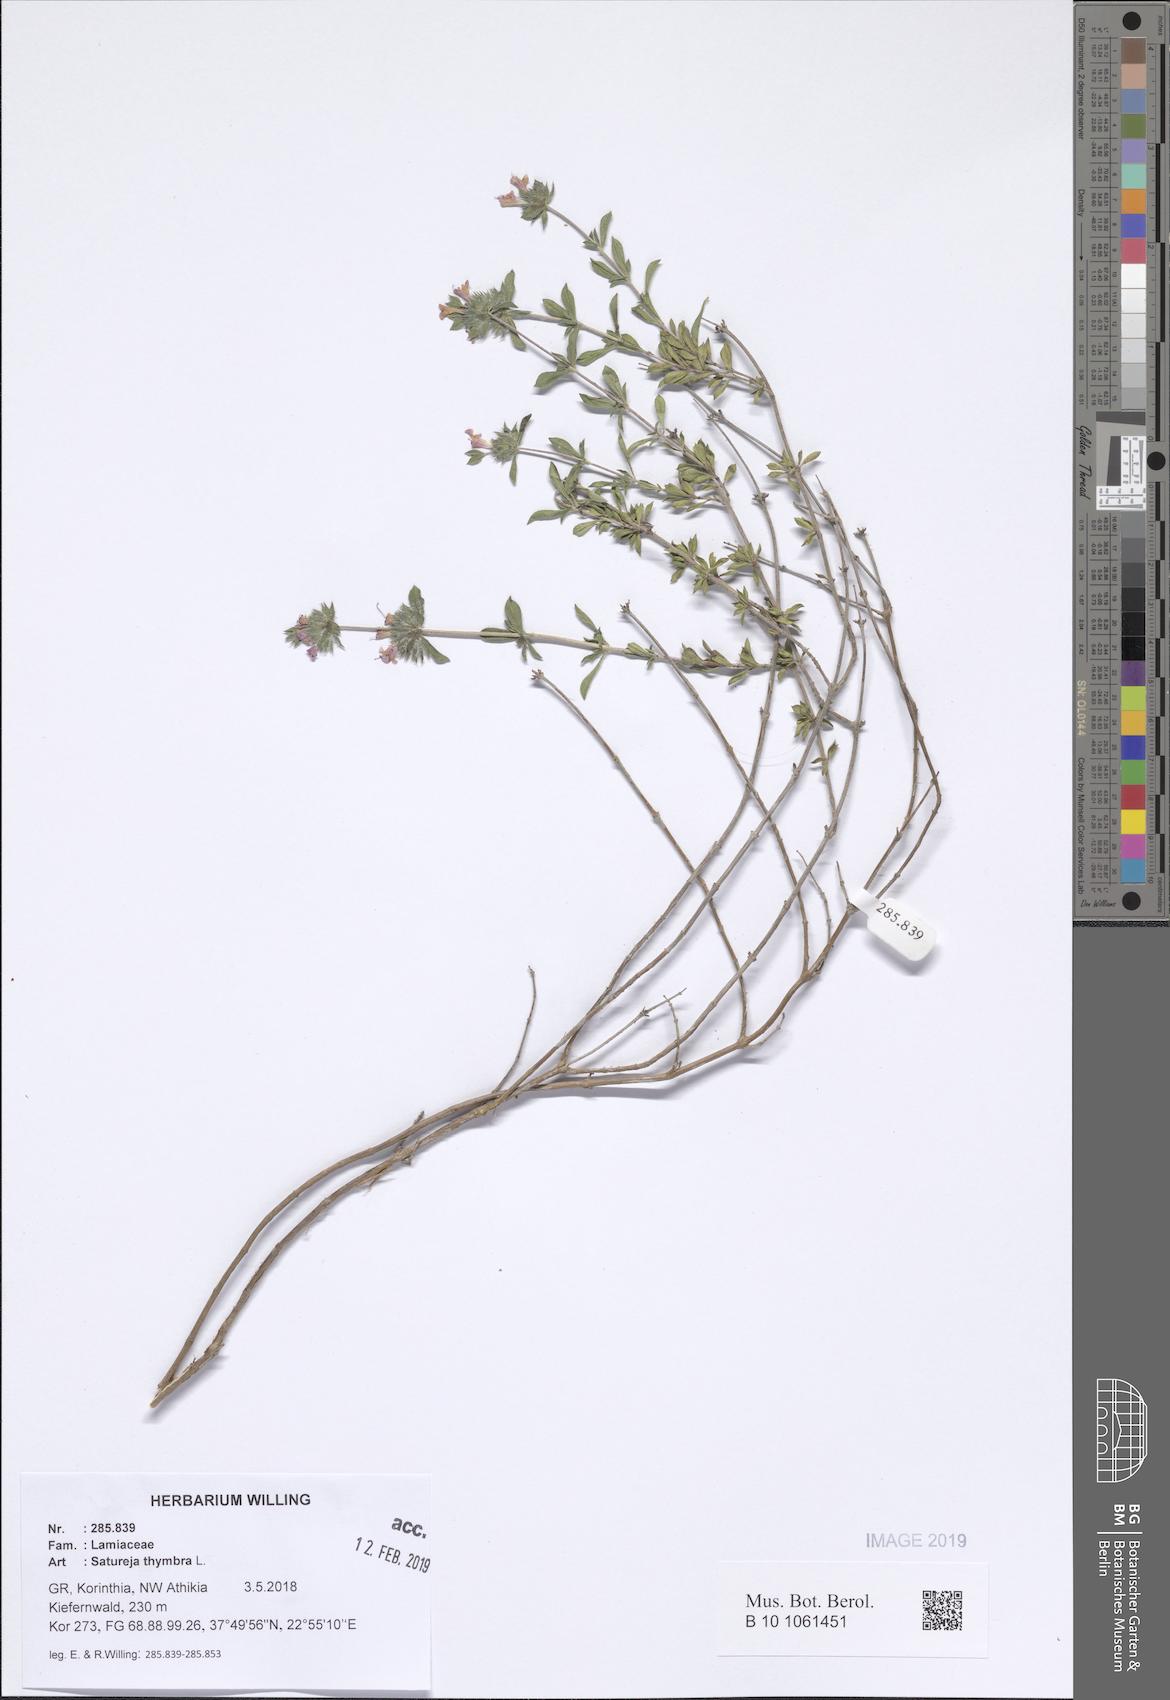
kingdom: Plantae
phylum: Tracheophyta
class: Magnoliopsida
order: Lamiales
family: Lamiaceae
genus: Satureja
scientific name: Satureja thymbra
